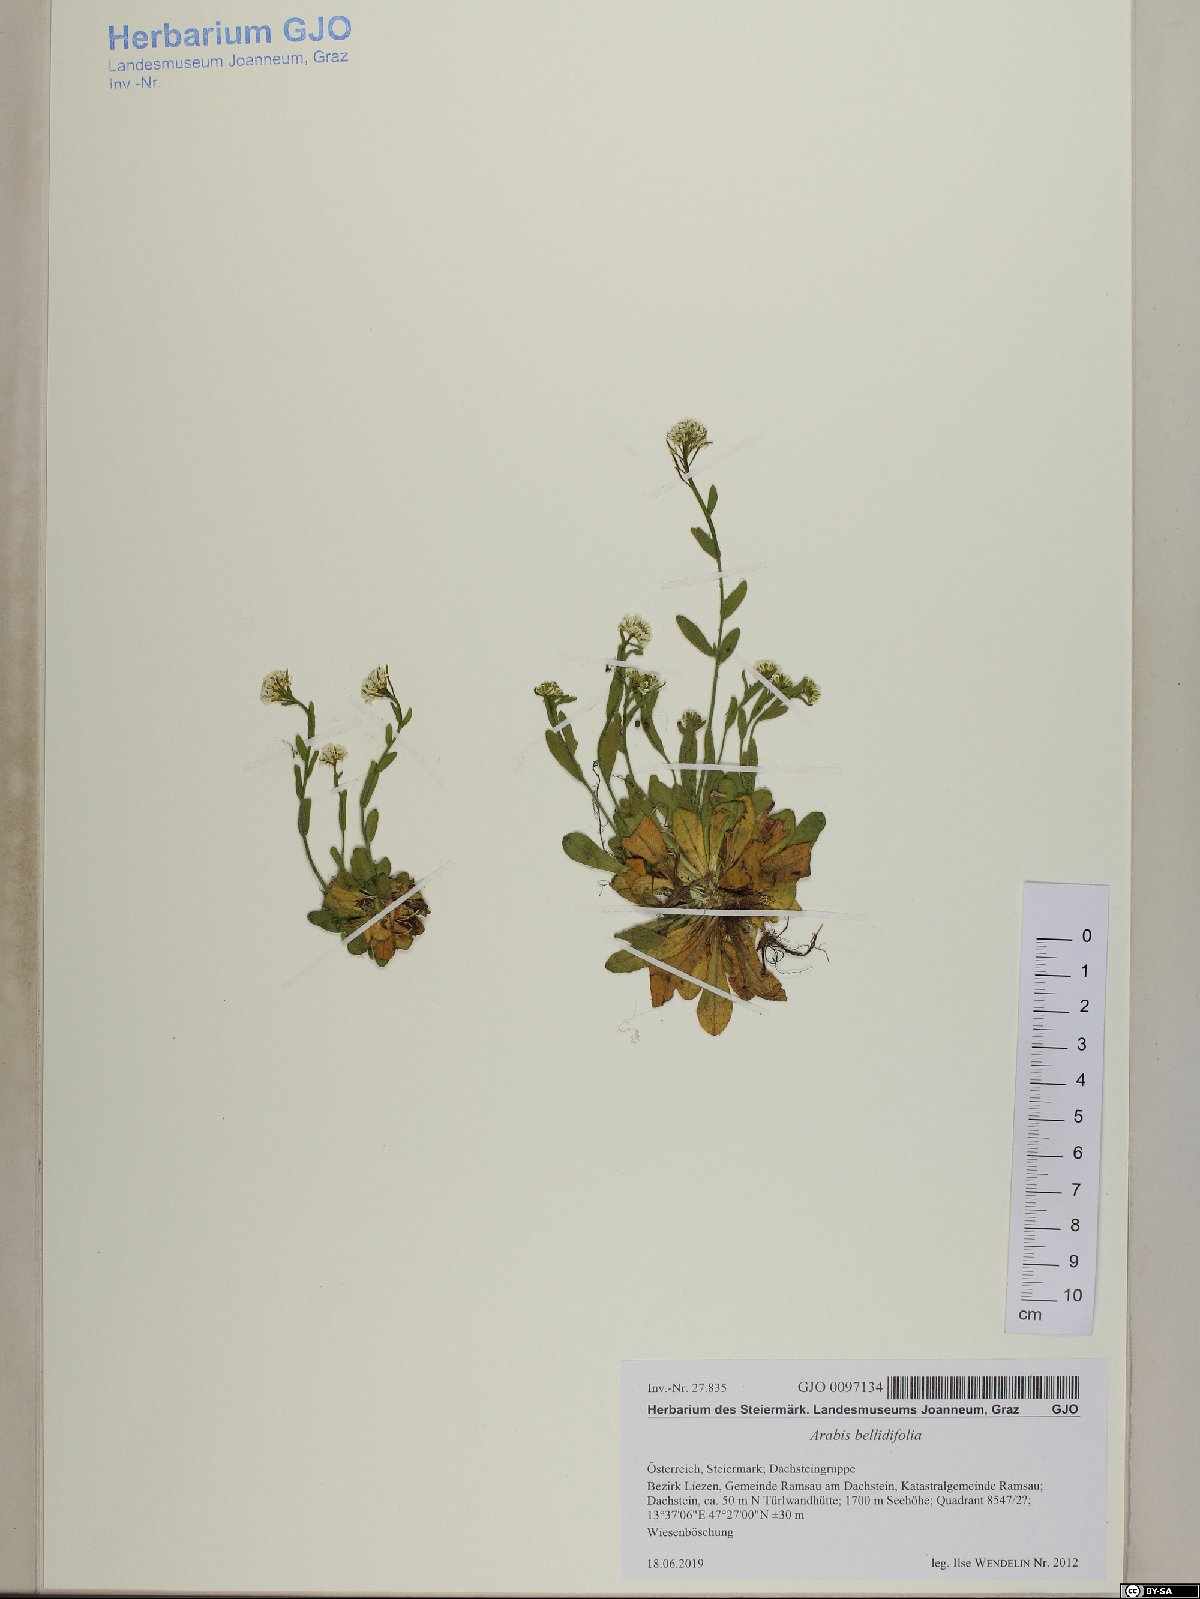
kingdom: Plantae
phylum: Tracheophyta
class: Magnoliopsida
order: Brassicales
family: Brassicaceae
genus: Arabis
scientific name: Arabis pumila
